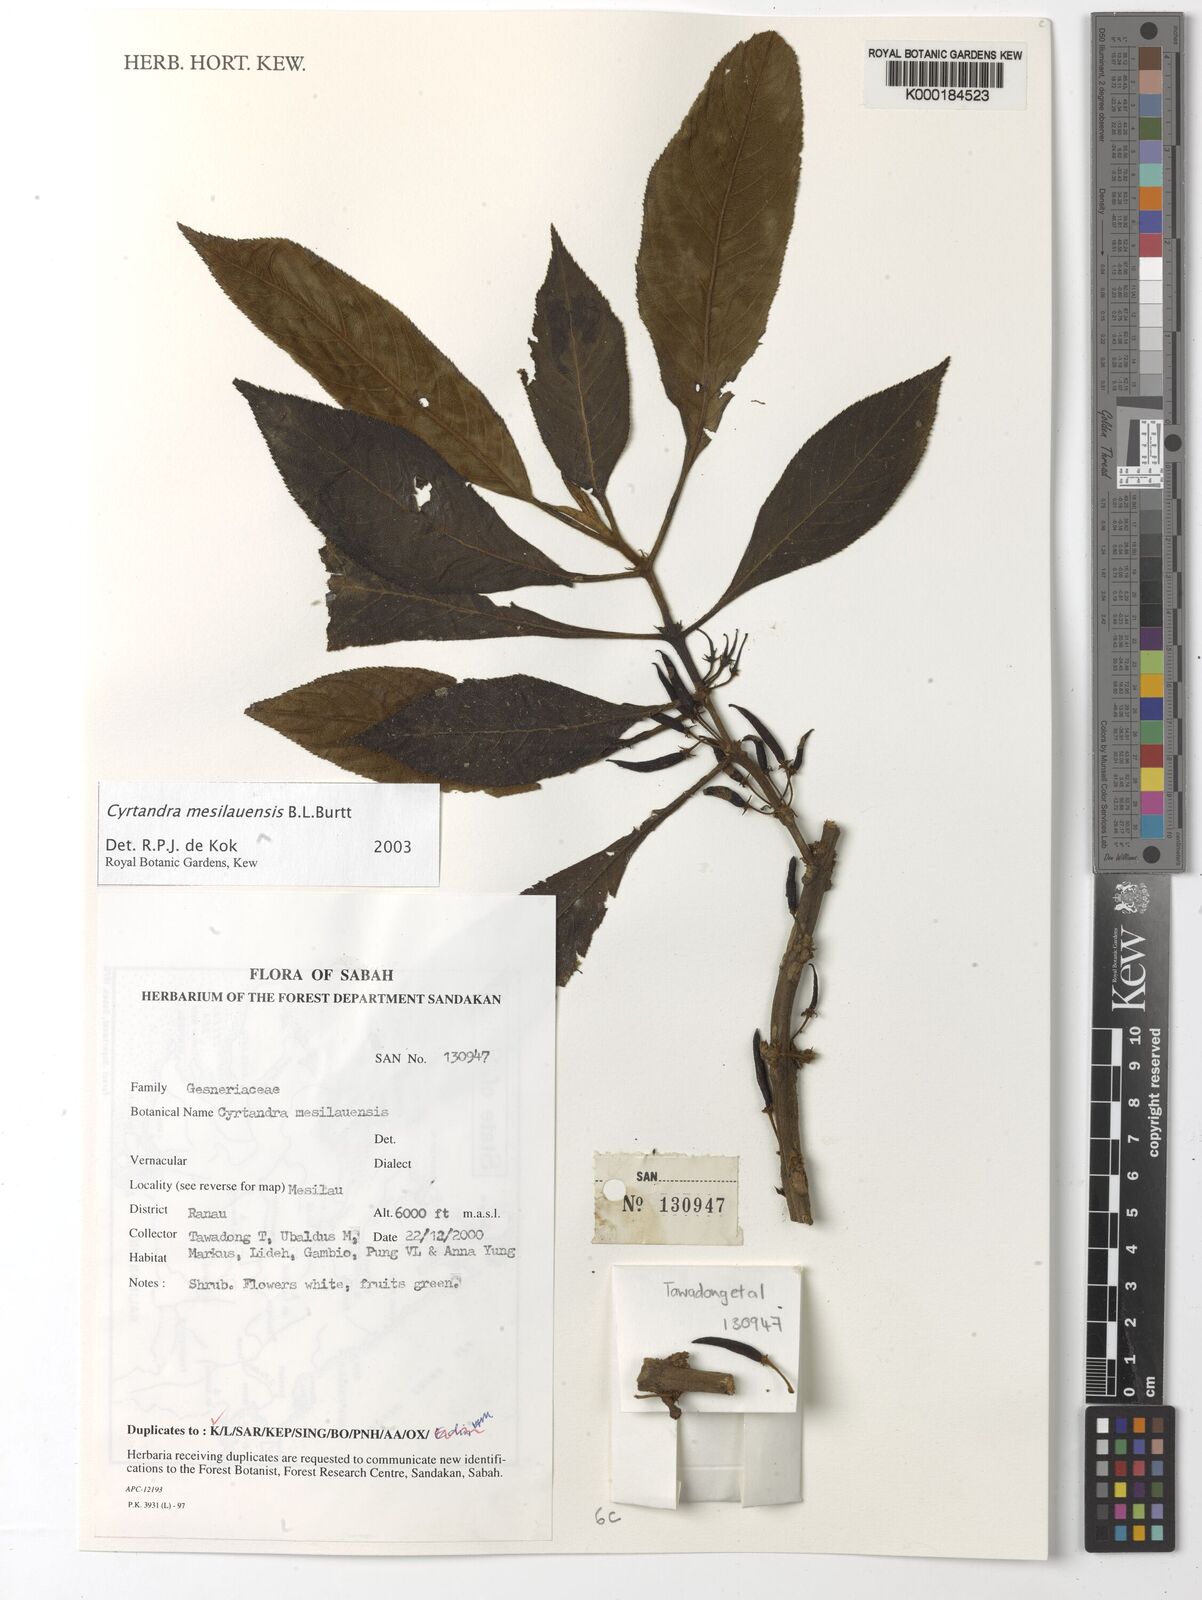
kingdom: Plantae
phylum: Tracheophyta
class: Magnoliopsida
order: Lamiales
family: Gesneriaceae
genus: Cyrtandra
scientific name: Cyrtandra mesilauensis
